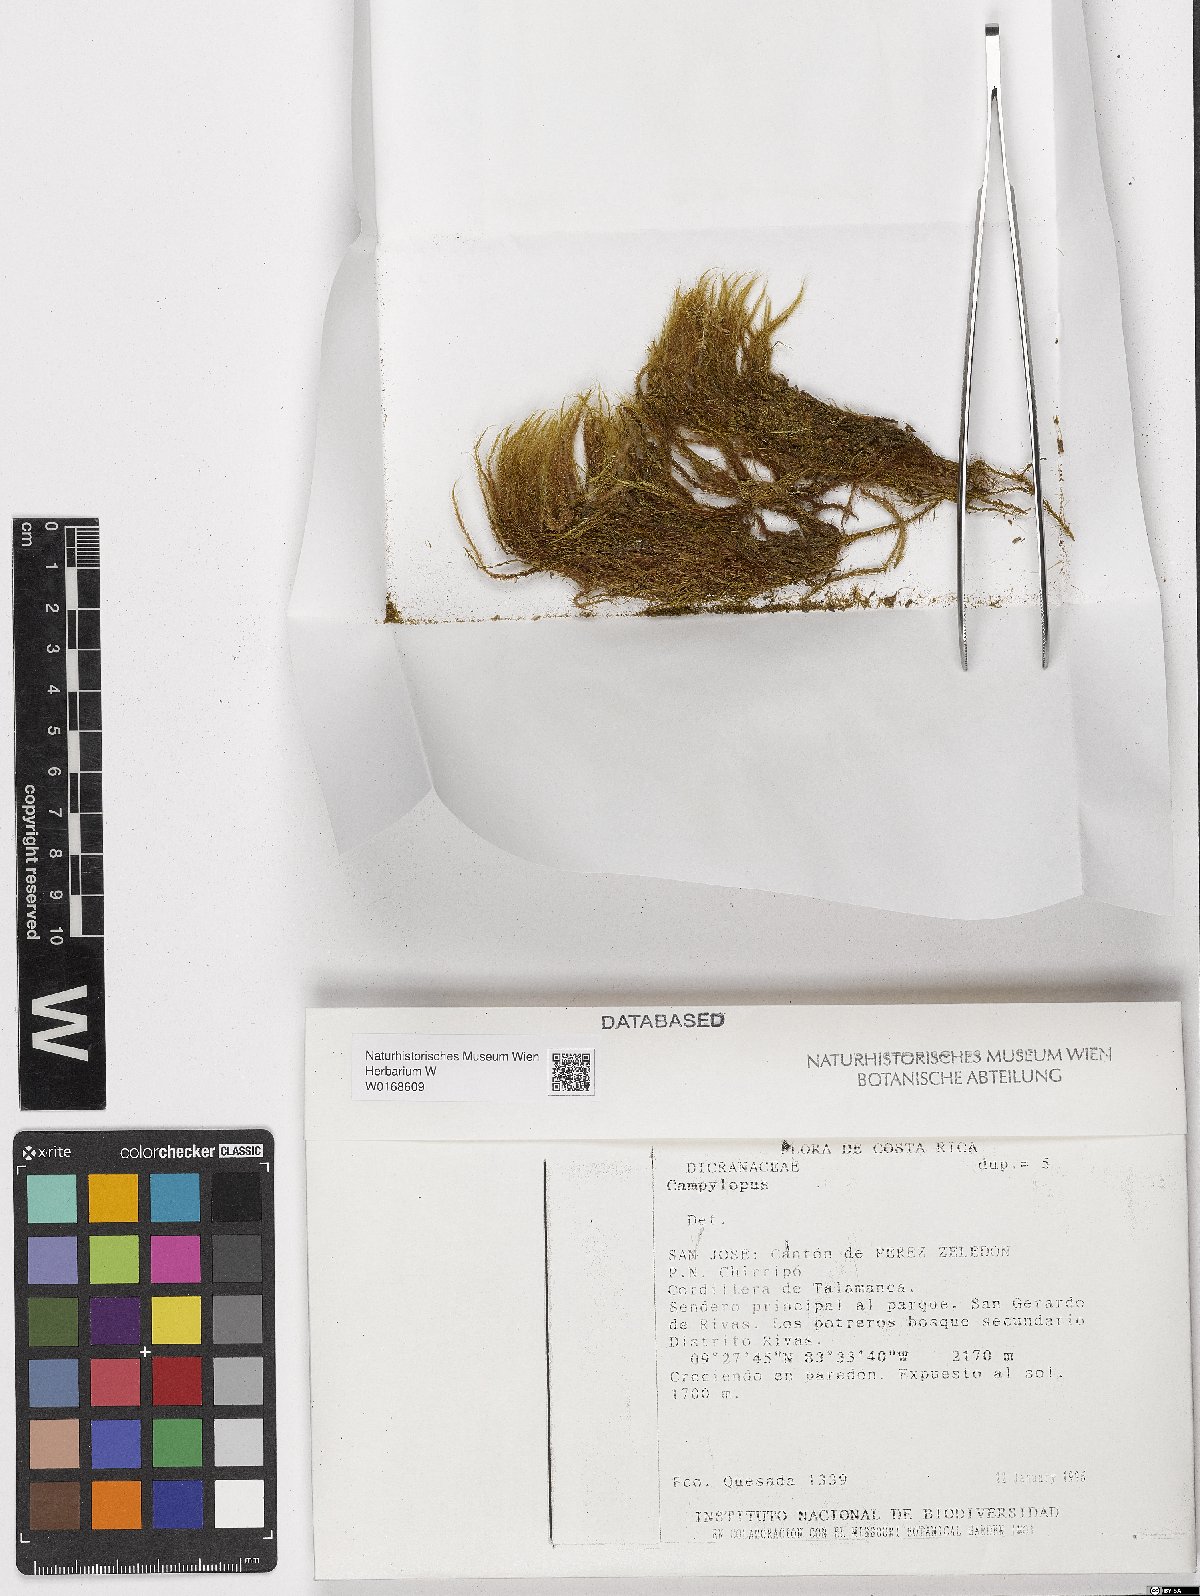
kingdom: Plantae
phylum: Bryophyta
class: Bryopsida
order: Dicranales
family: Leucobryaceae
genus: Campylopus
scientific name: Campylopus
